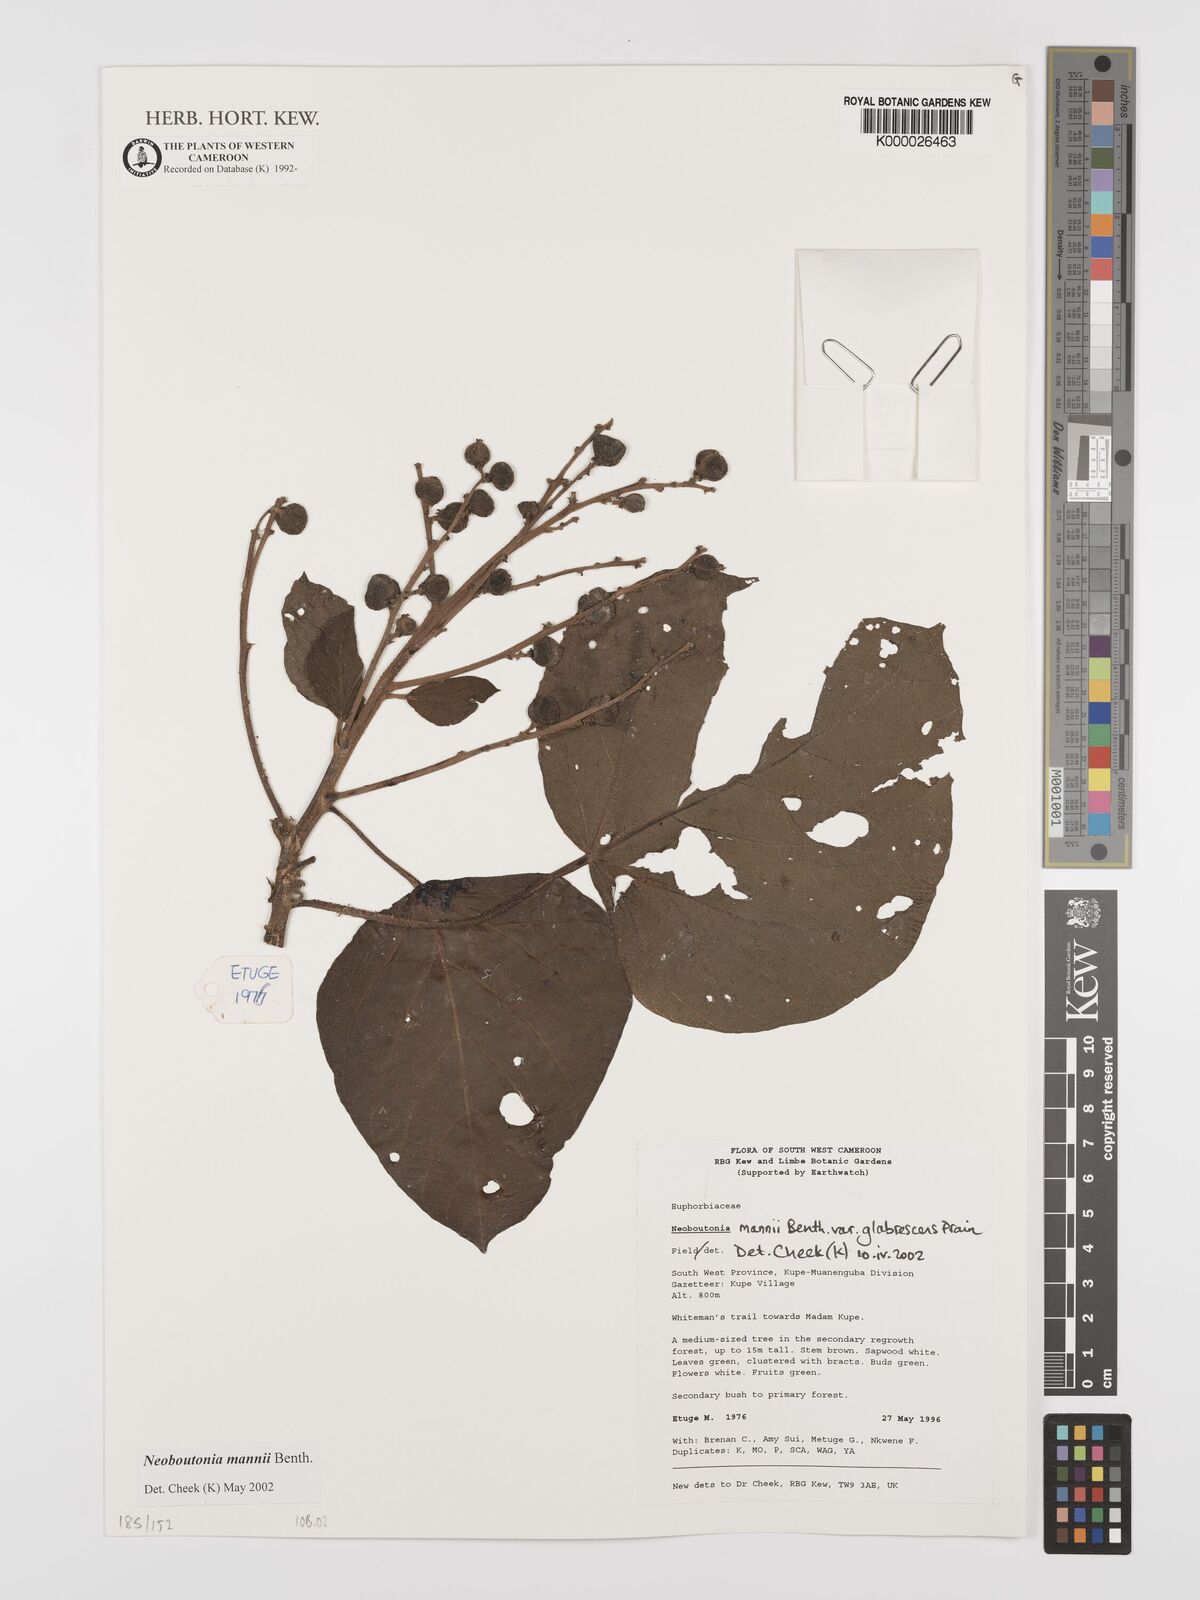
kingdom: Plantae
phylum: Tracheophyta
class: Magnoliopsida
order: Malpighiales
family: Euphorbiaceae
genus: Neoboutonia
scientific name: Neoboutonia mannii
